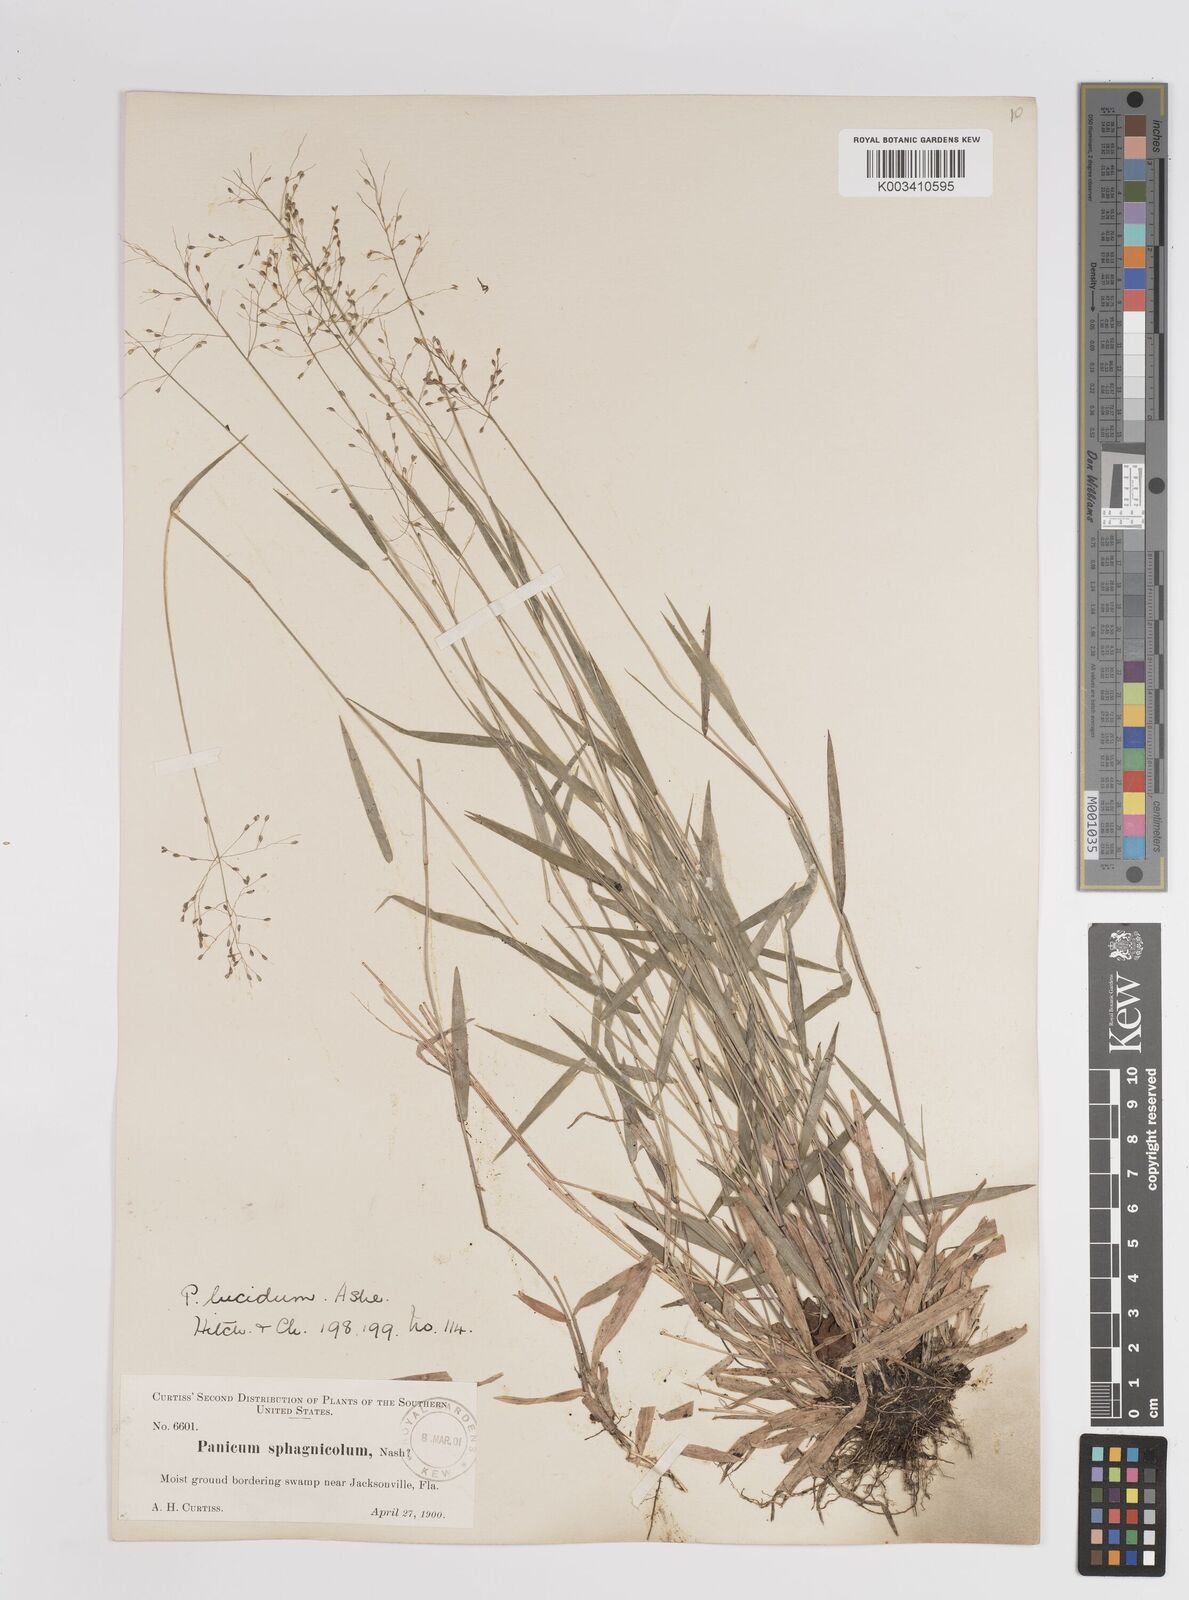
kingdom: Plantae
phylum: Tracheophyta
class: Liliopsida
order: Poales
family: Poaceae
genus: Dichanthelium
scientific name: Dichanthelium lucidum
